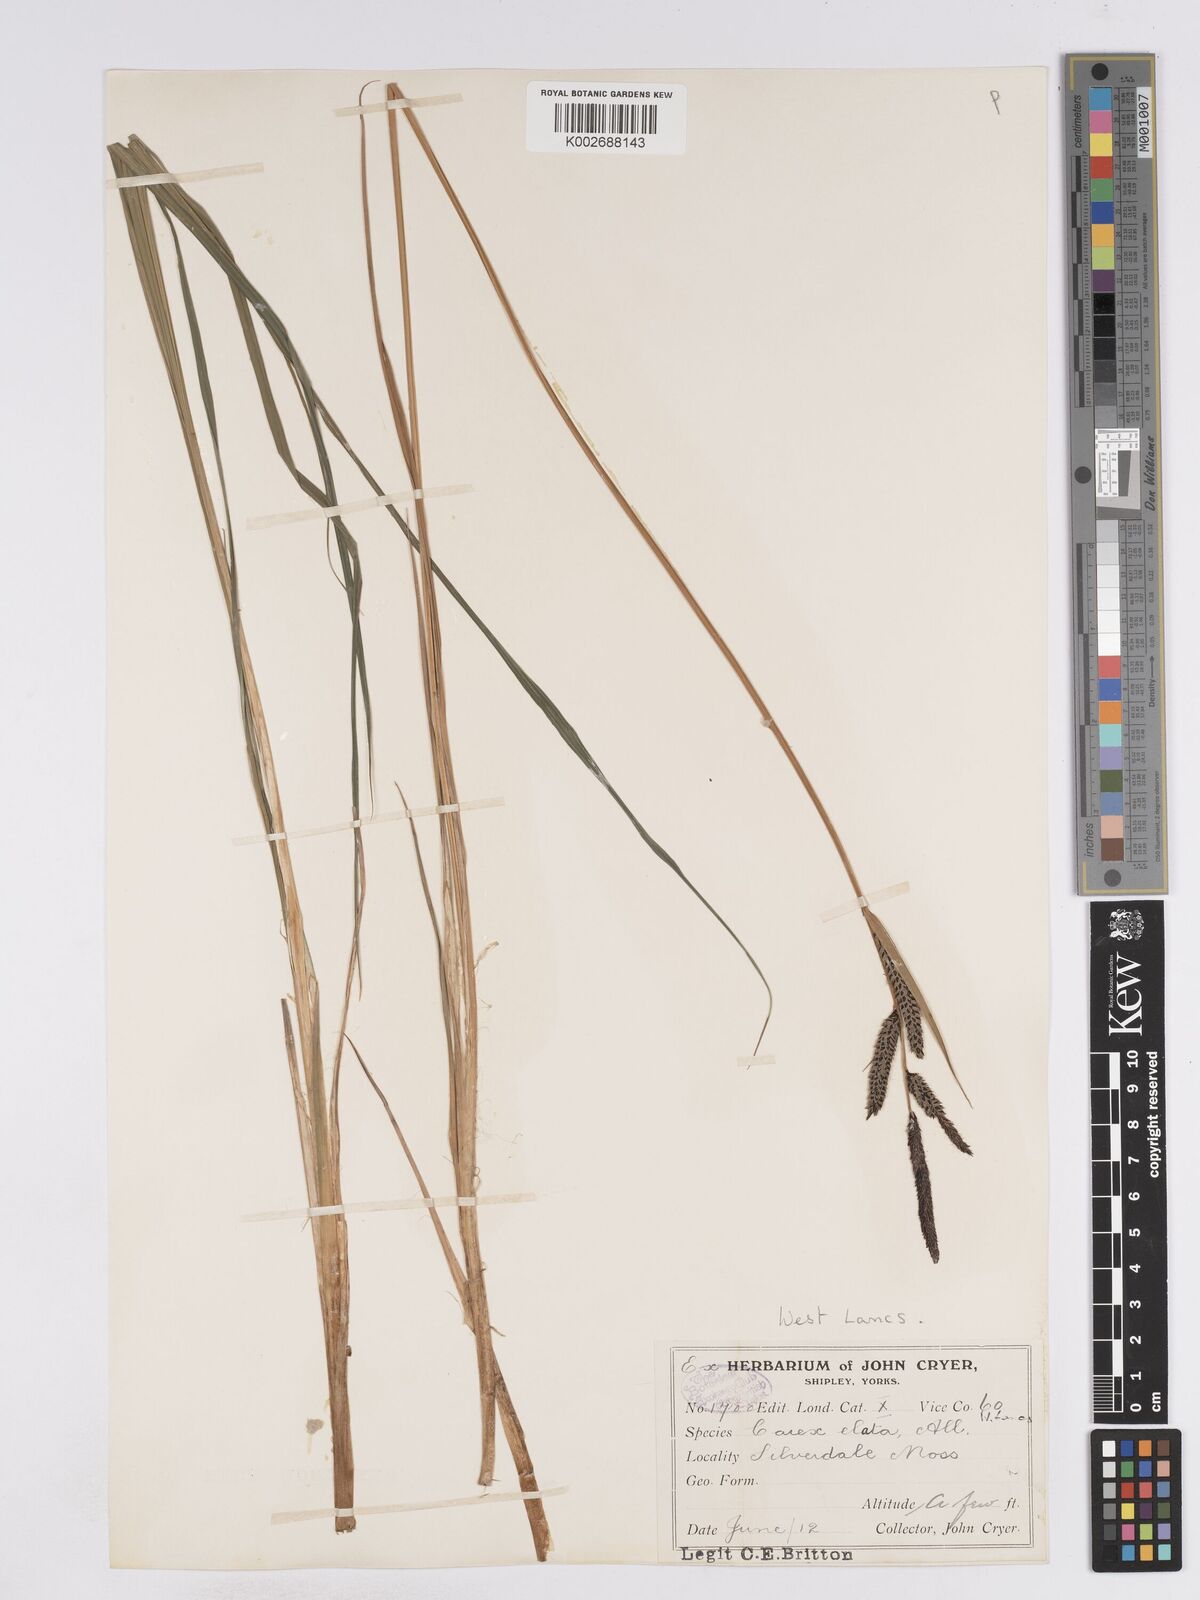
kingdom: Plantae
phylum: Tracheophyta
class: Liliopsida
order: Poales
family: Cyperaceae
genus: Carex
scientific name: Carex elata
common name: Tufted sedge
